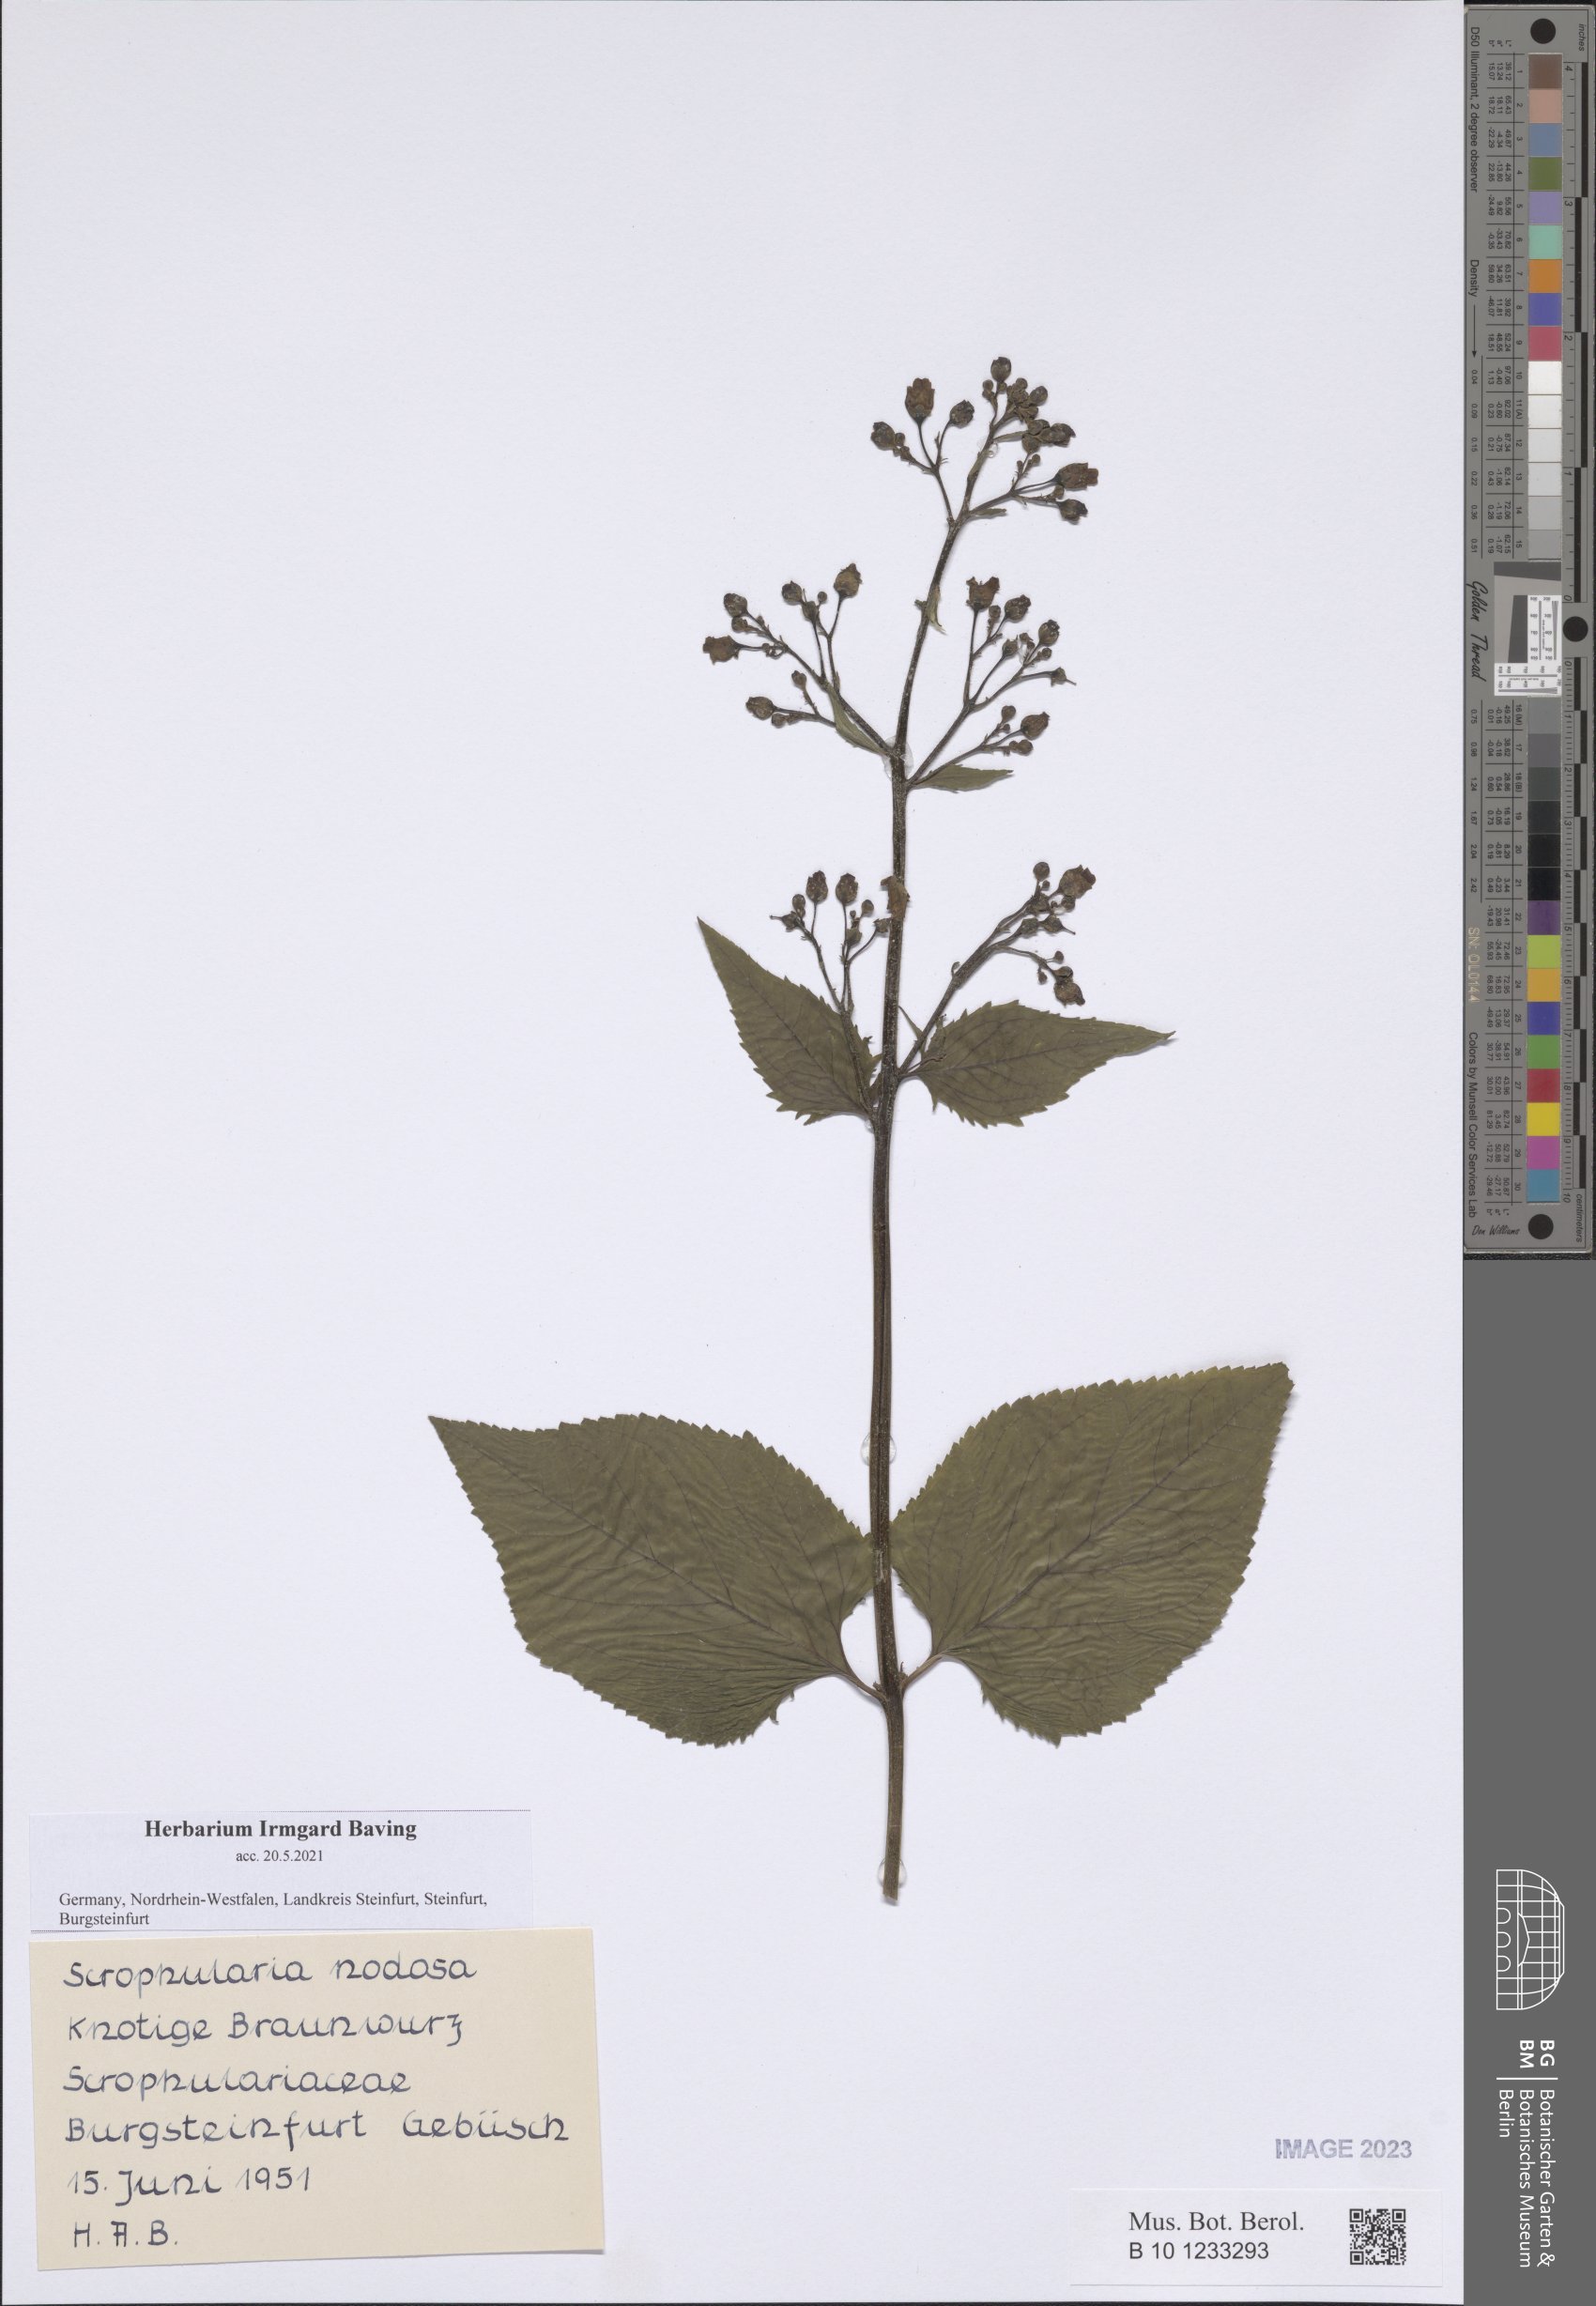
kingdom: Plantae
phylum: Tracheophyta
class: Magnoliopsida
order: Lamiales
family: Scrophulariaceae
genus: Scrophularia
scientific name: Scrophularia nodosa
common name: Common figwort
